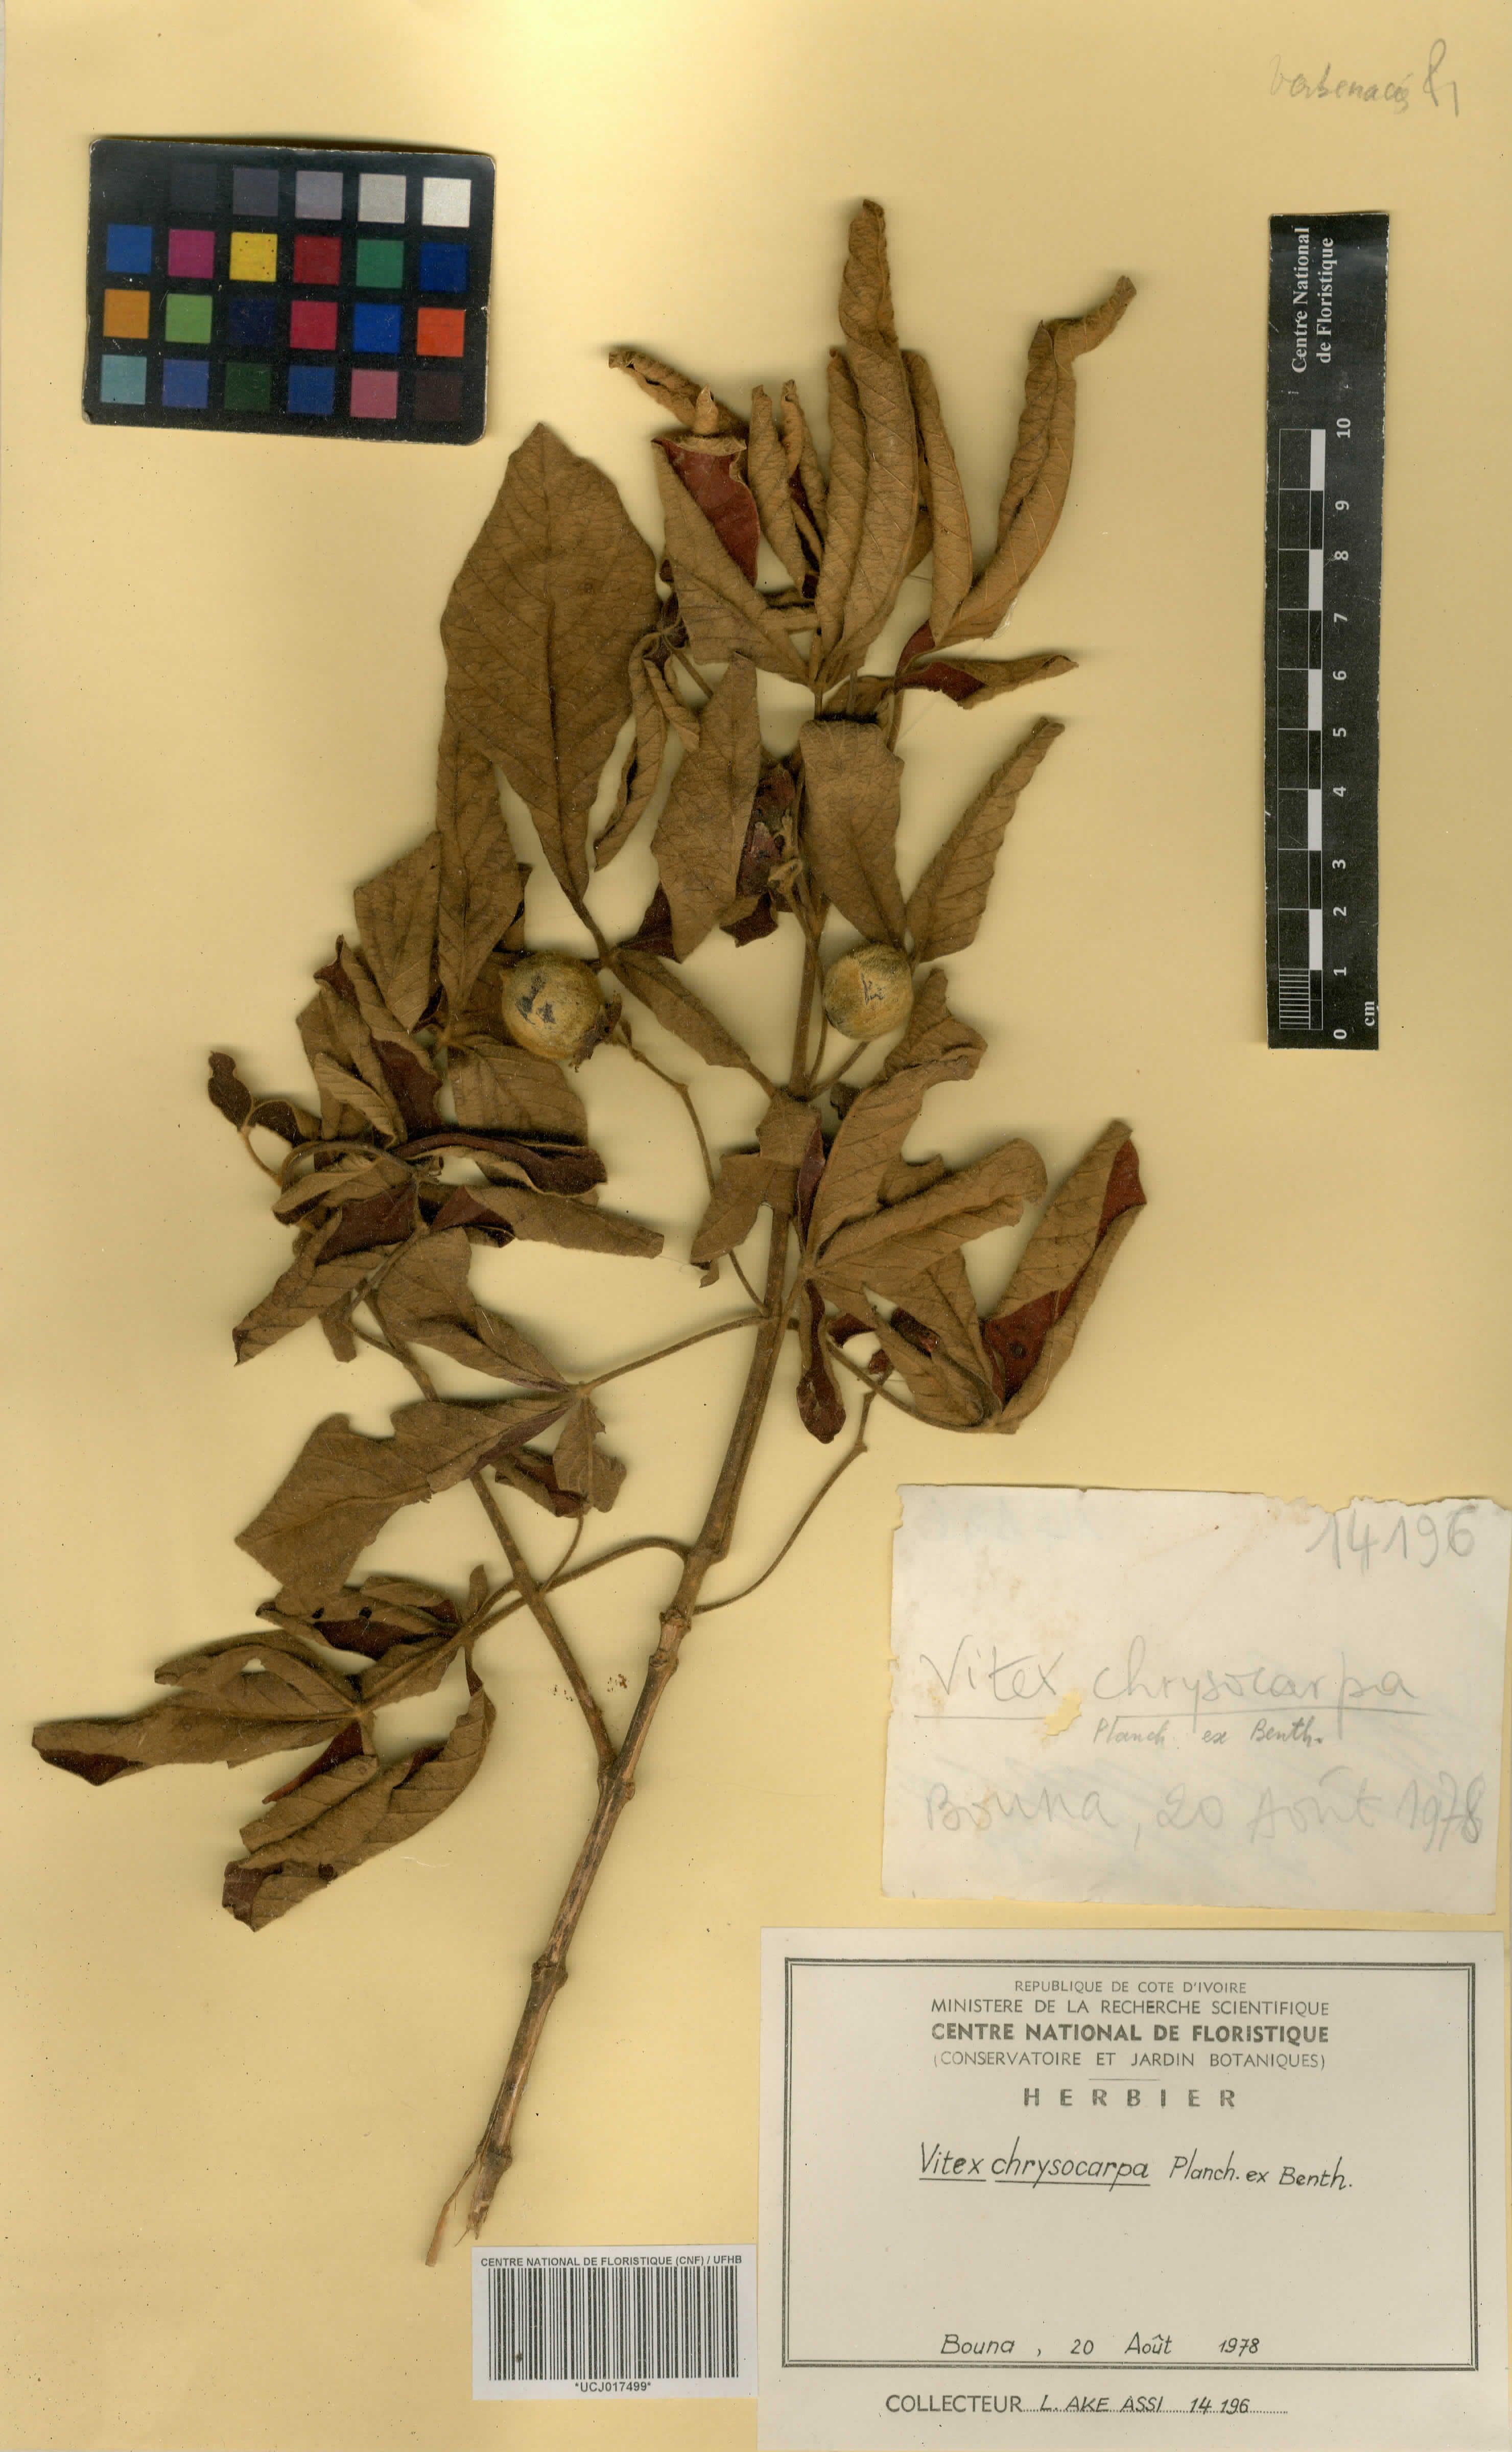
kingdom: Plantae
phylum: Tracheophyta
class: Magnoliopsida
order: Lamiales
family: Verbenaceae
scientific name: Verbenaceae
